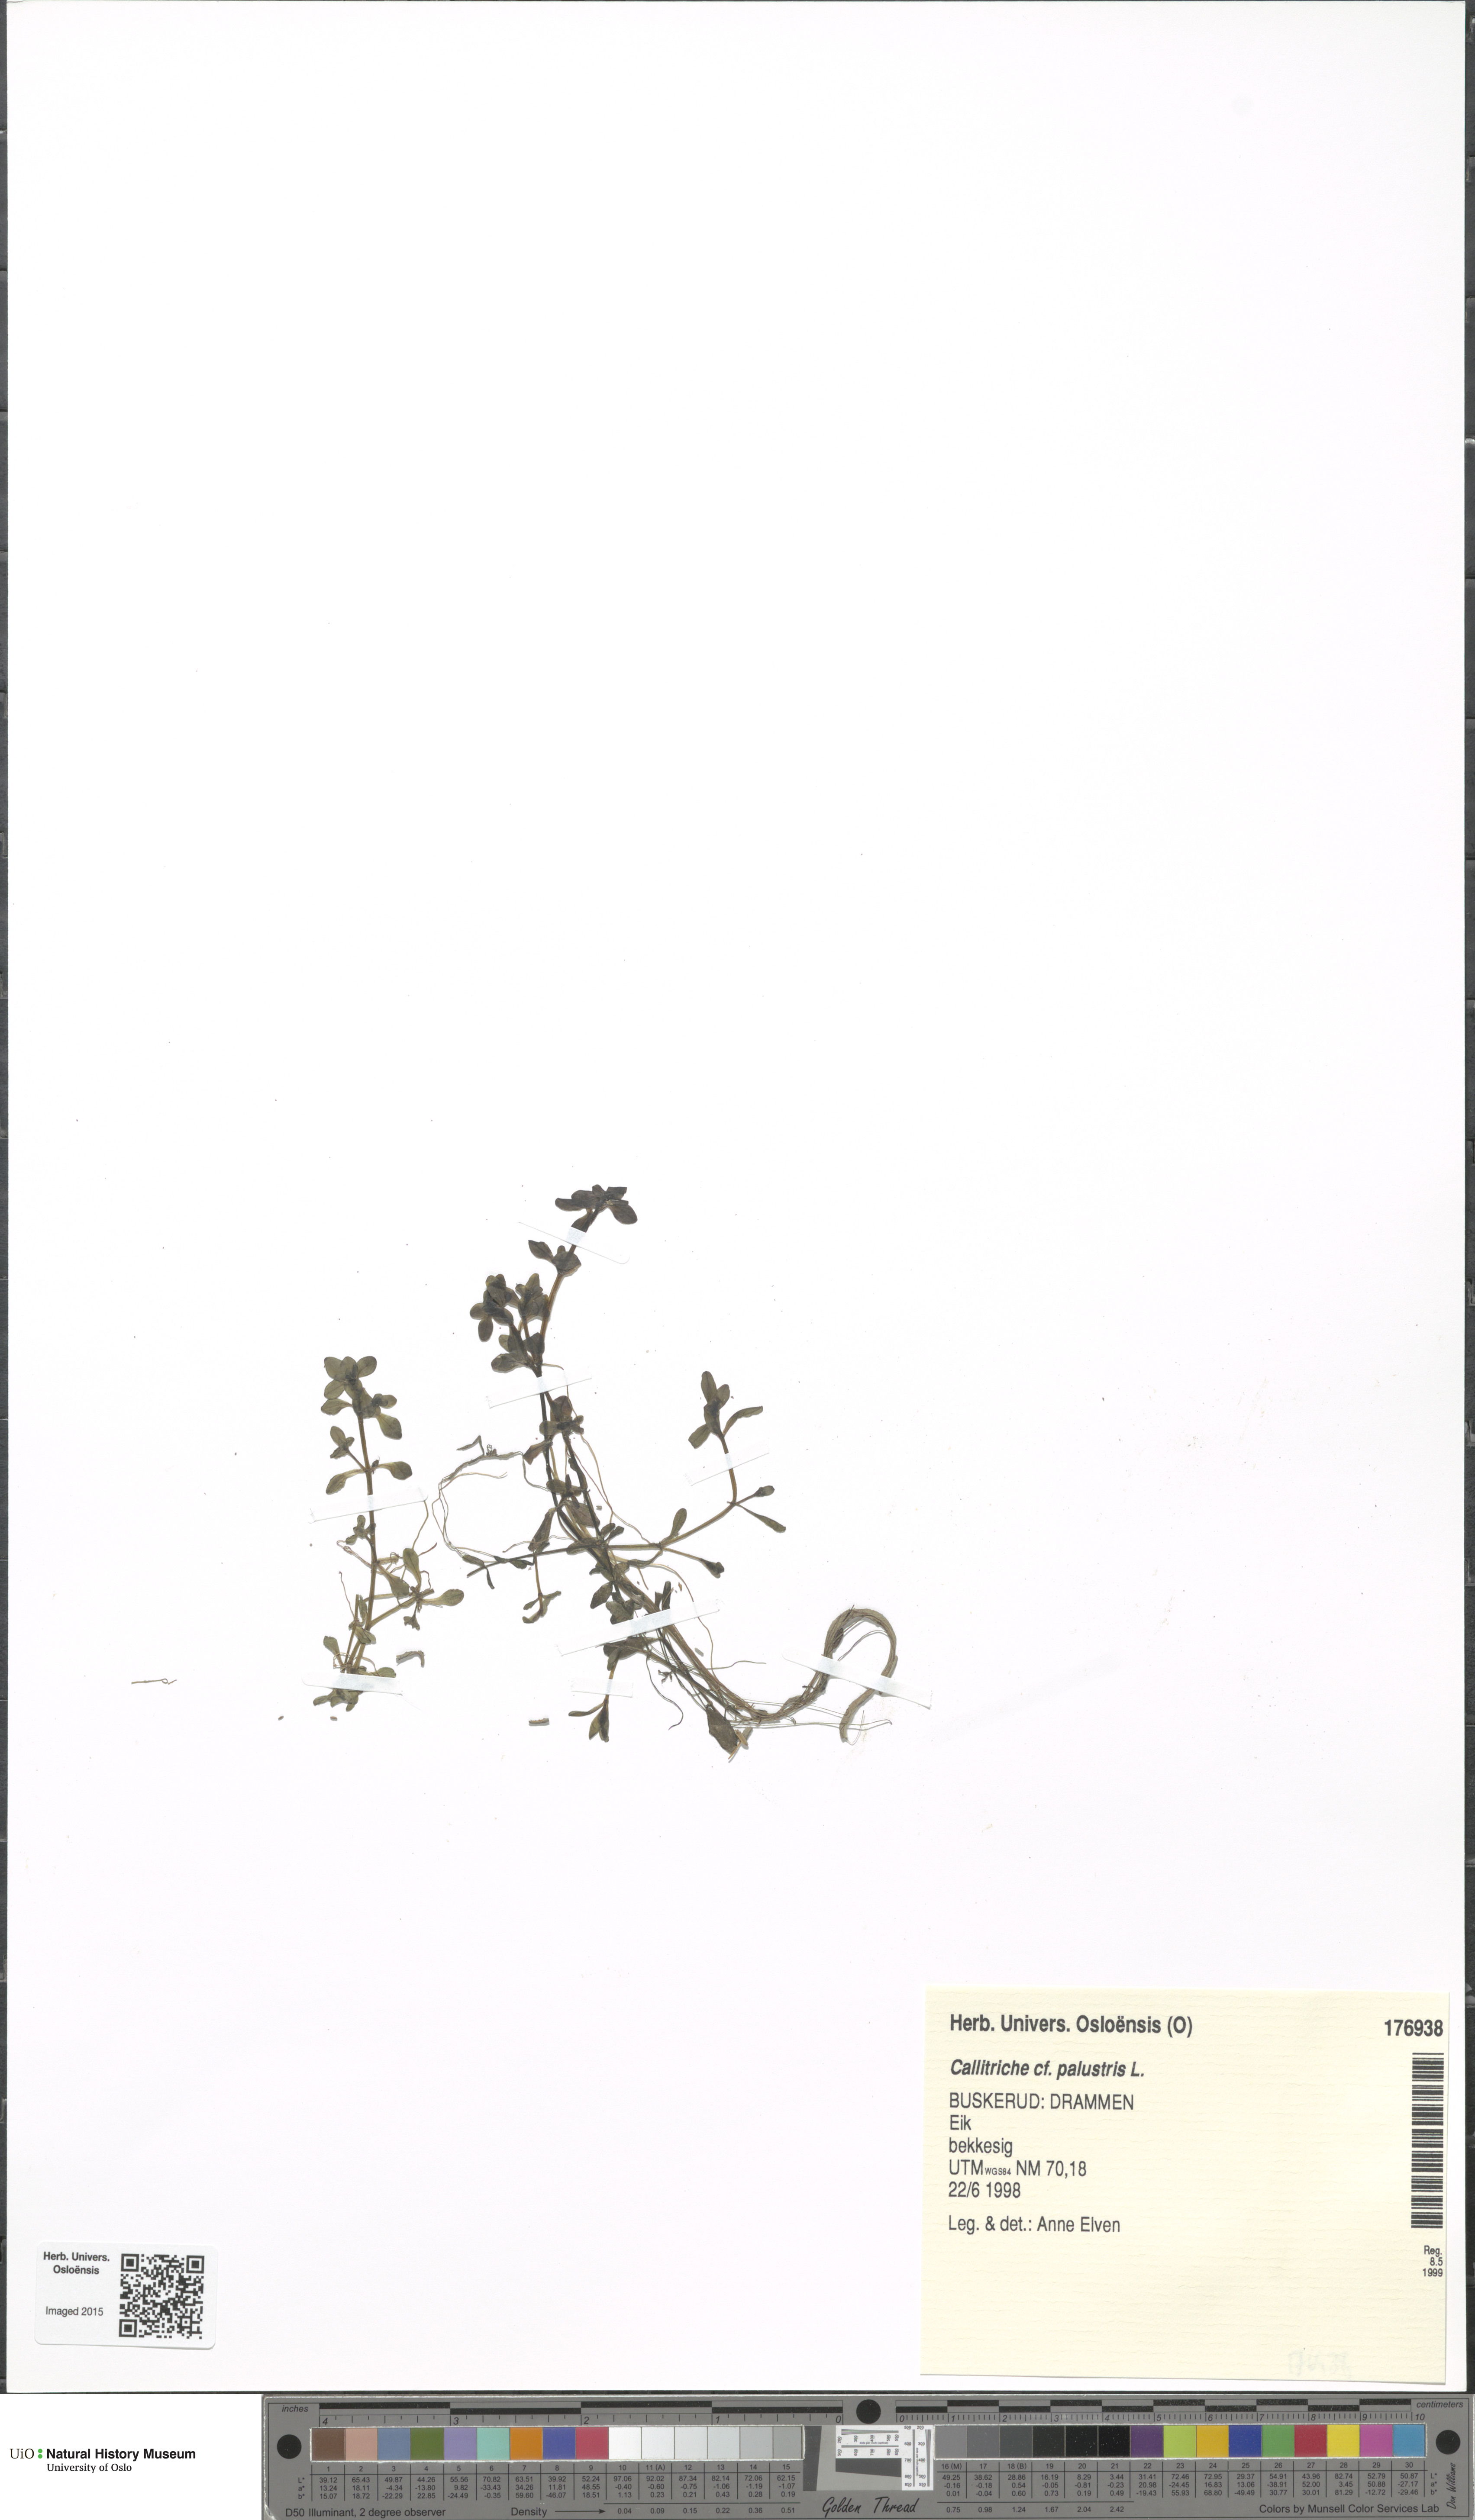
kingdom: Plantae
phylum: Tracheophyta
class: Magnoliopsida
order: Lamiales
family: Plantaginaceae
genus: Callitriche
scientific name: Callitriche cophocarpa
